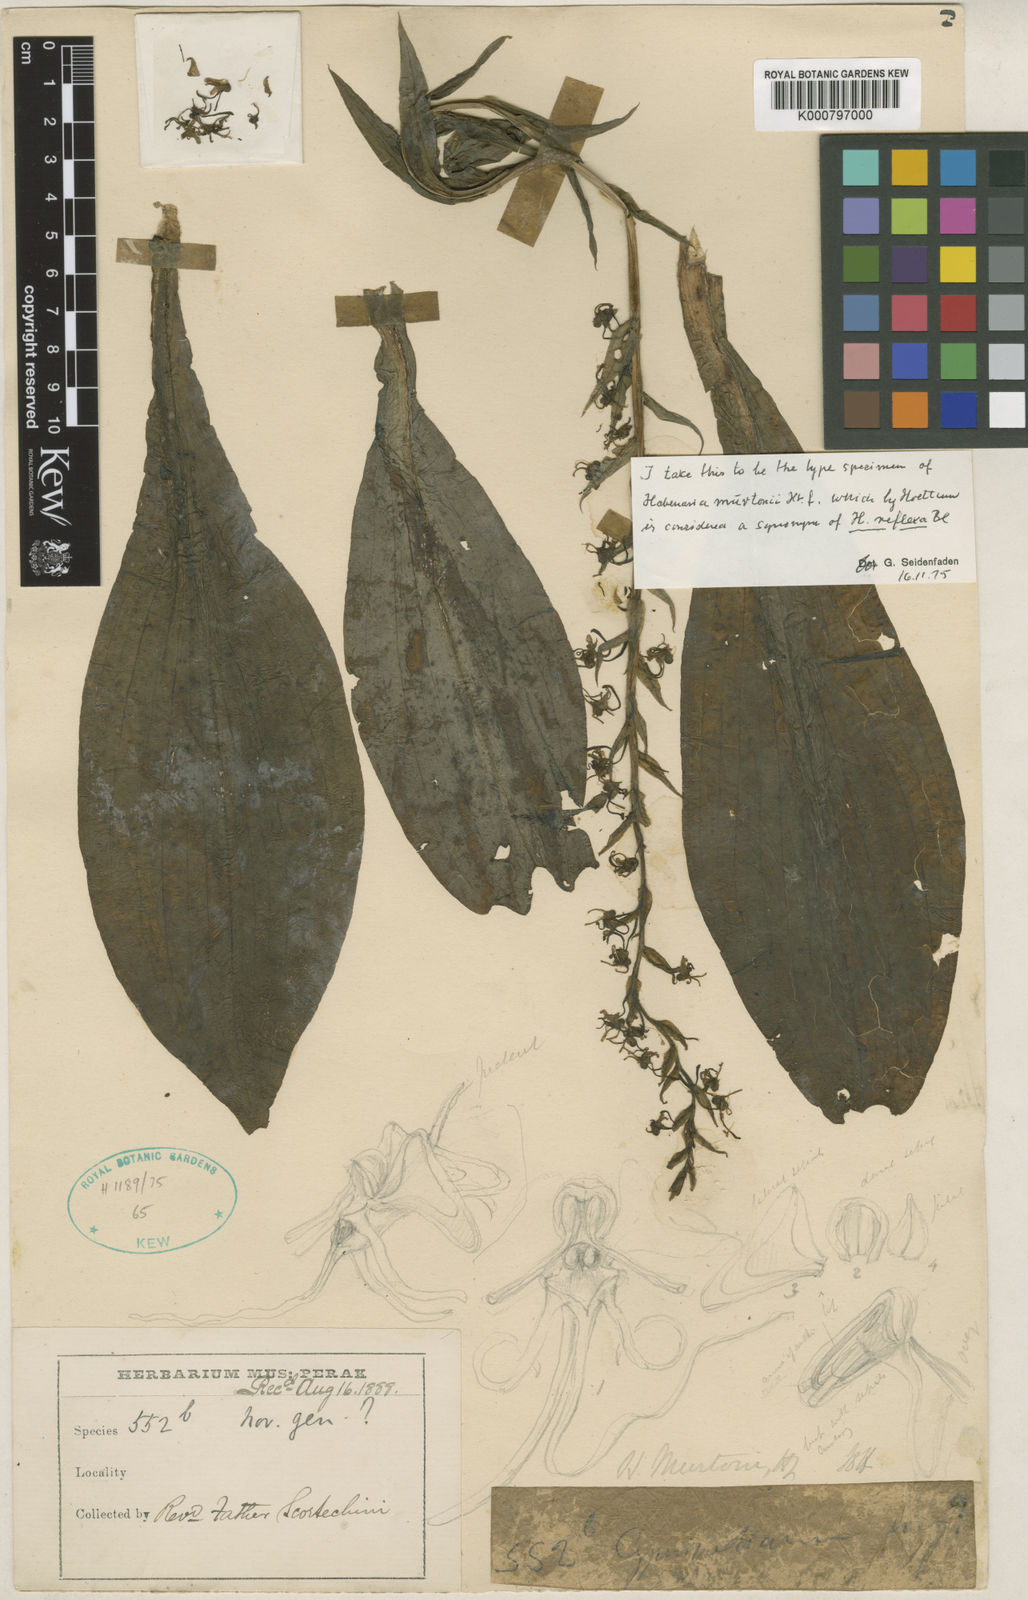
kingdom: Plantae
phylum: Tracheophyta
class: Liliopsida
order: Asparagales
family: Orchidaceae
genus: Habenaria
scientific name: Habenaria reflexa
